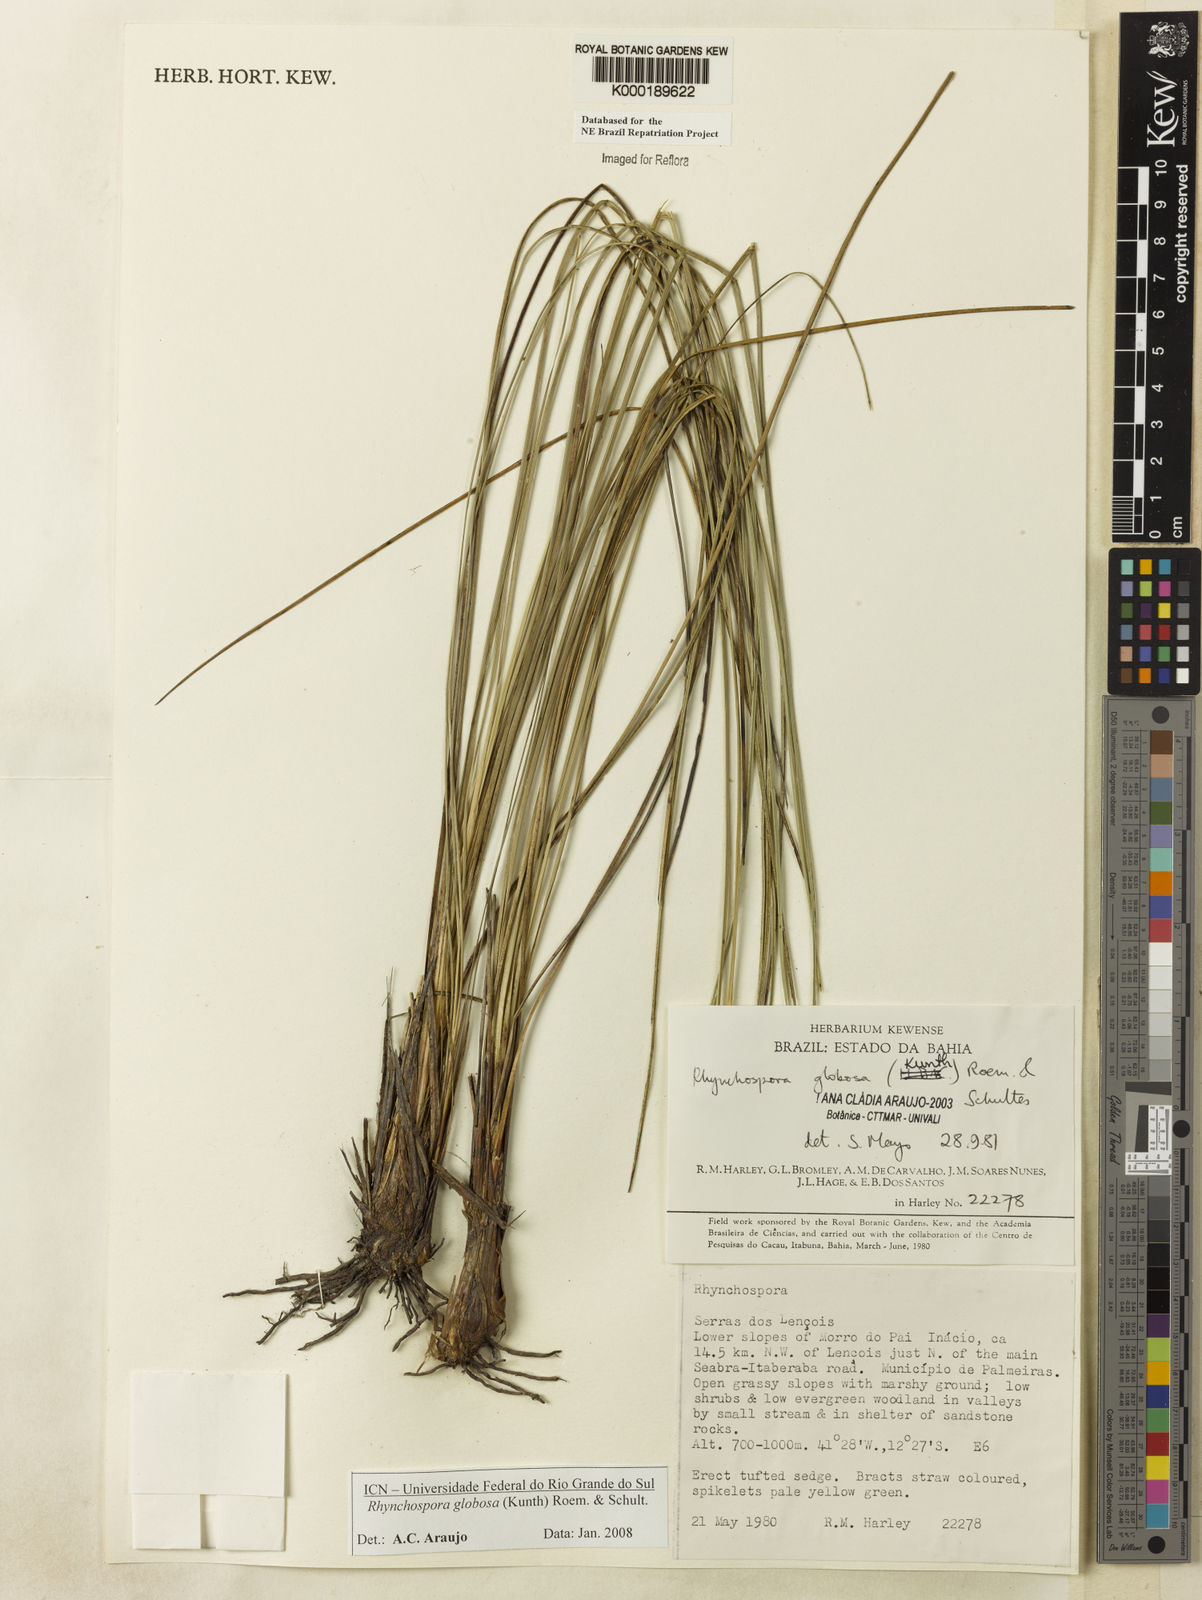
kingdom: Plantae
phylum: Tracheophyta
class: Liliopsida
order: Poales
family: Cyperaceae
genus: Rhynchospora
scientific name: Rhynchospora globosa
